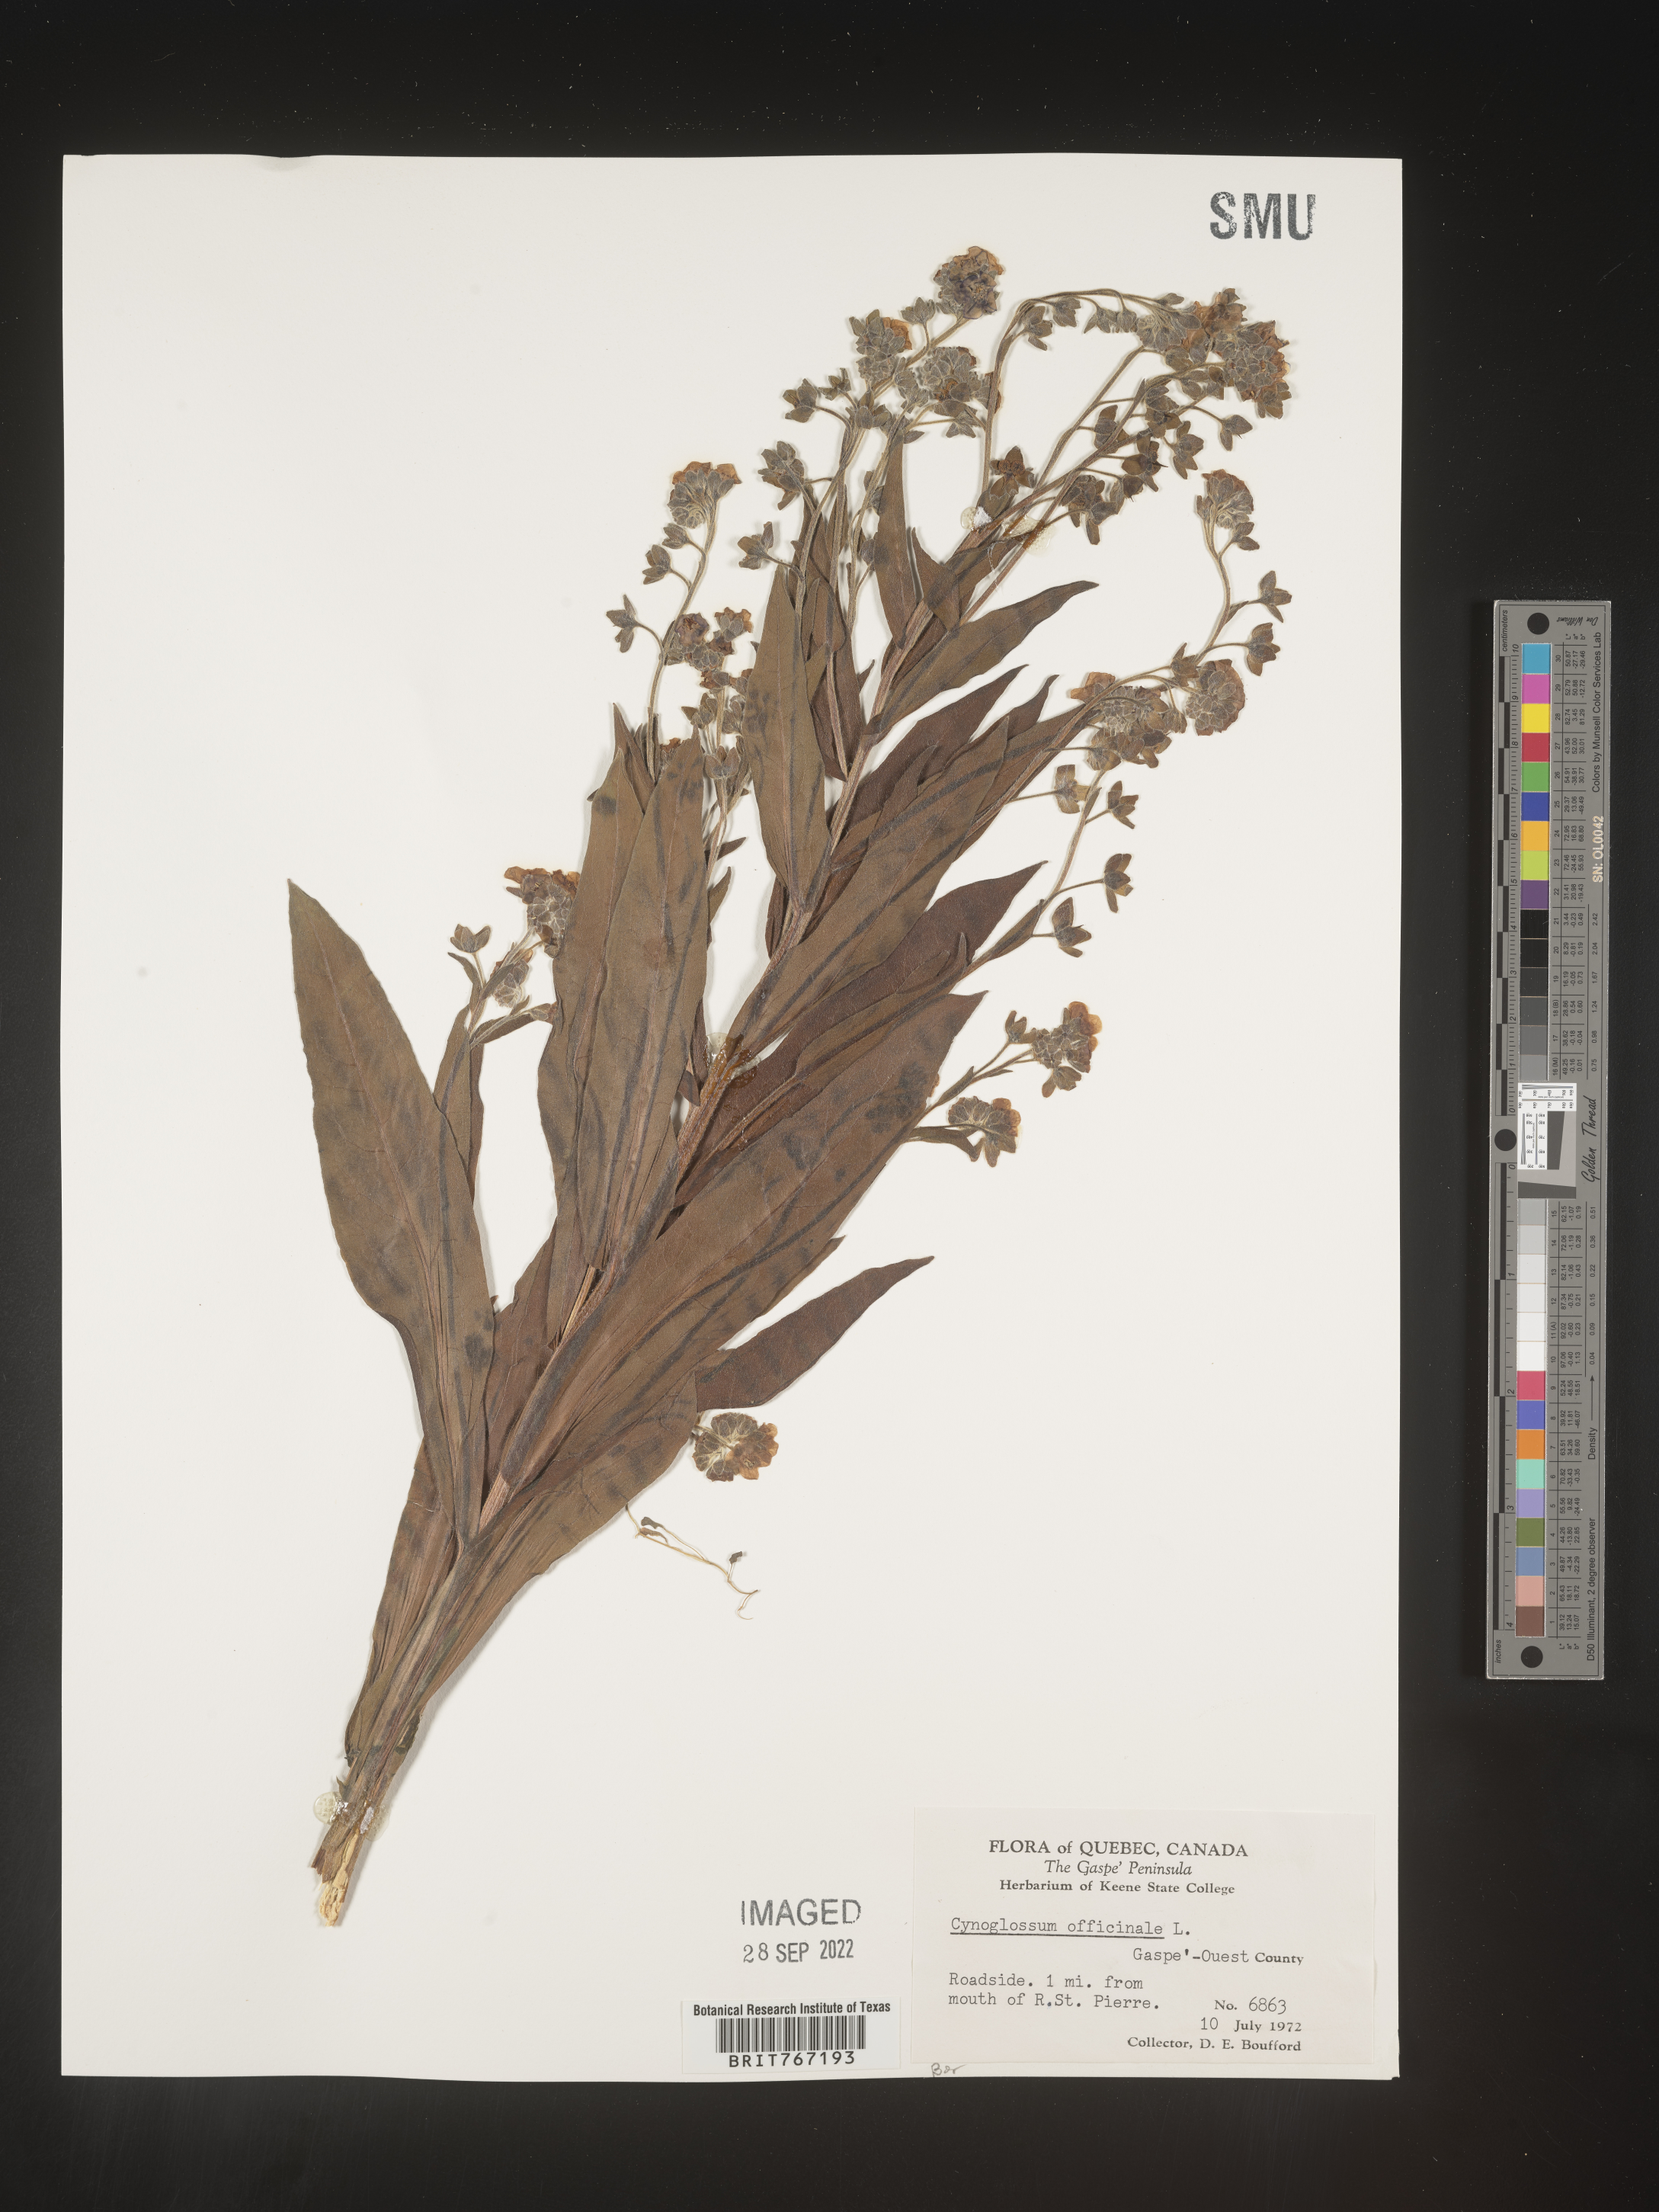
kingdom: Plantae
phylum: Tracheophyta
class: Magnoliopsida
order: Boraginales
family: Boraginaceae
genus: Cynoglossum
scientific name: Cynoglossum officinale
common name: Hound's-tongue
